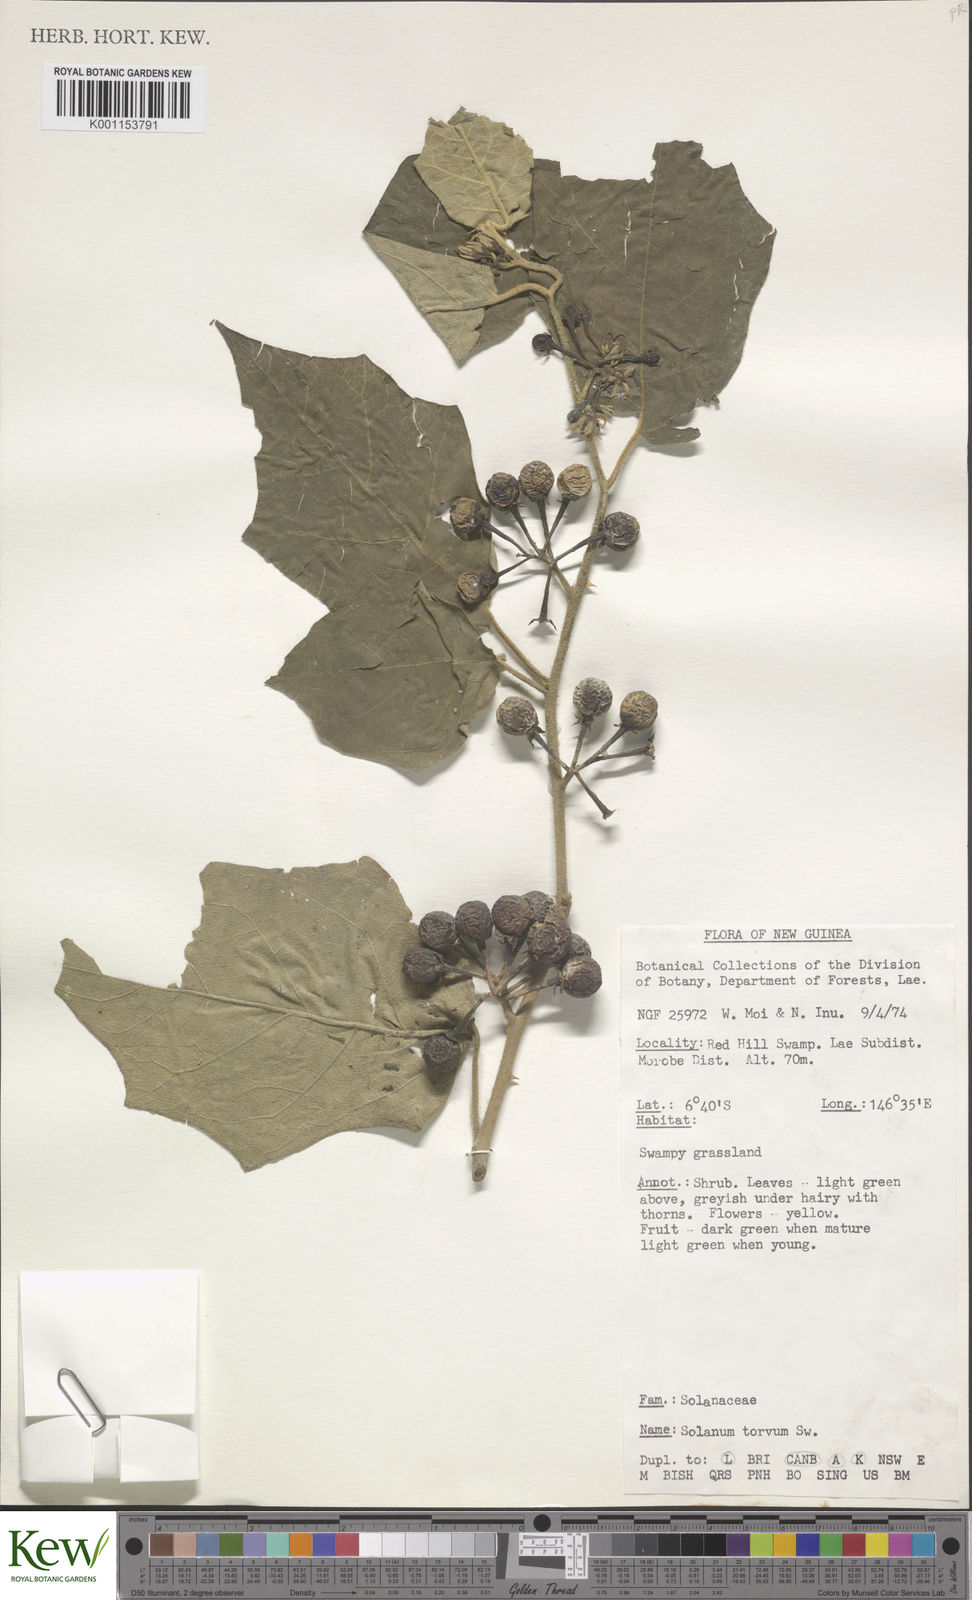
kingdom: Plantae
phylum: Tracheophyta
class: Magnoliopsida
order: Solanales
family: Solanaceae
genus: Solanum
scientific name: Solanum torvum
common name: Turkey berry
